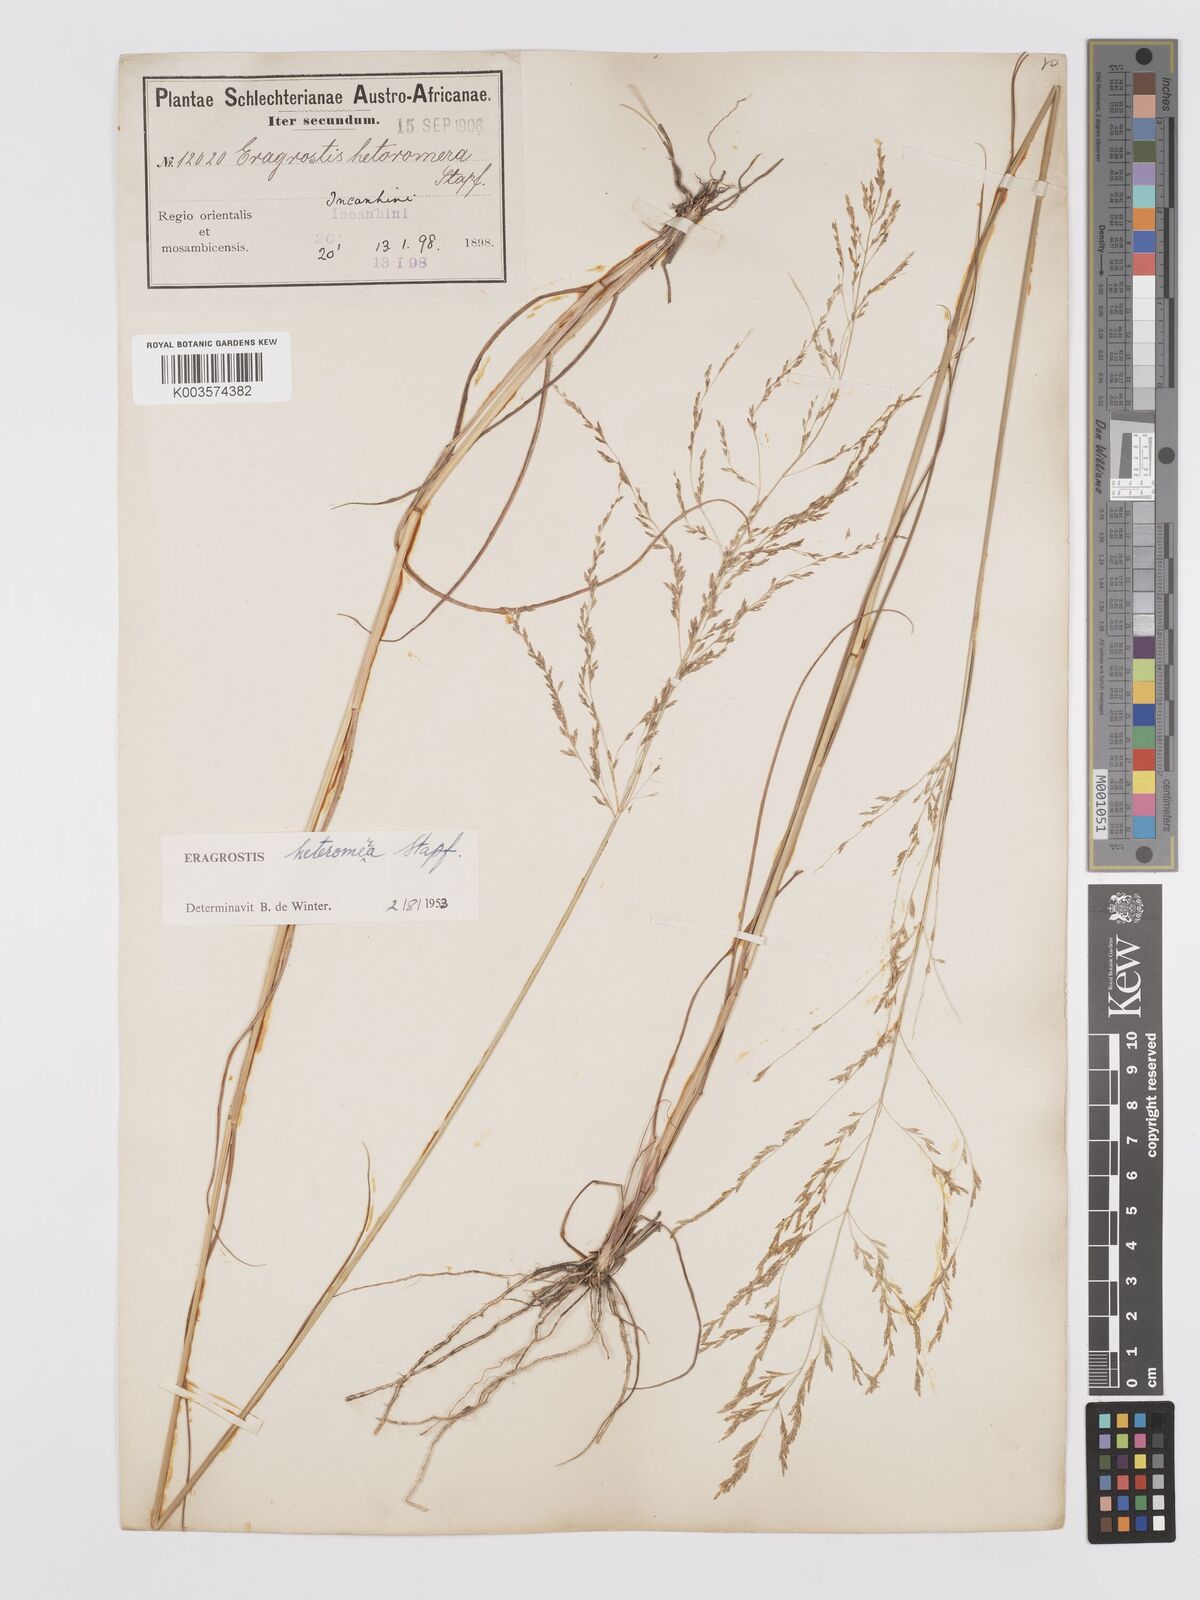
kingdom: Plantae
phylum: Tracheophyta
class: Liliopsida
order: Poales
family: Poaceae
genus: Eragrostis
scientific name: Eragrostis heteromera
